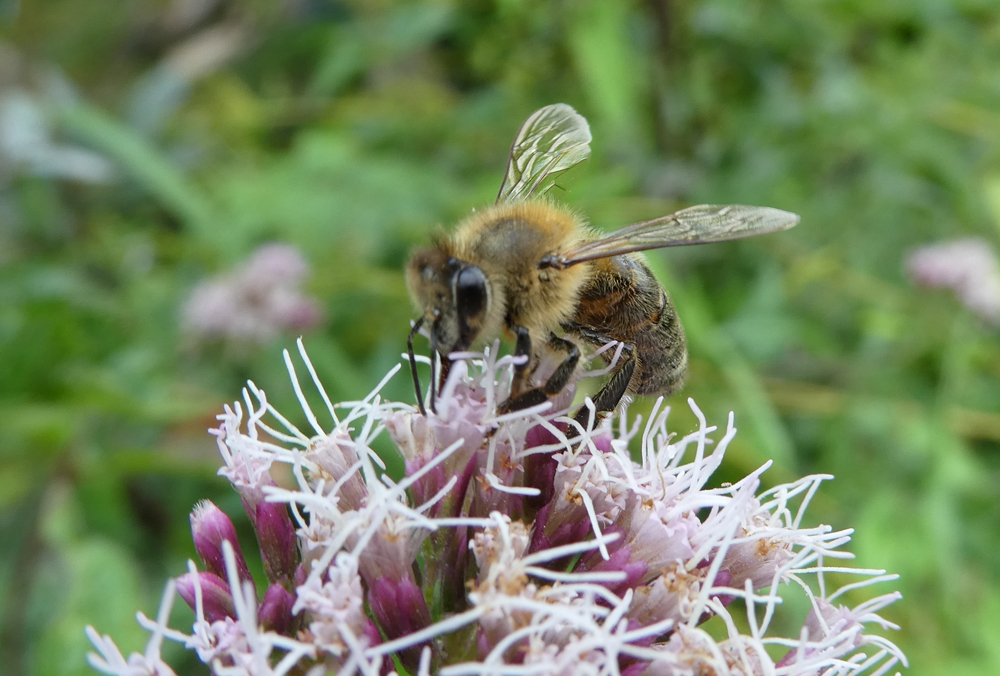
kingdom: Animalia
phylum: Arthropoda
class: Insecta
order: Hymenoptera
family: Apidae
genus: Apis
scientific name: Apis mellifera
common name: Honey bee
